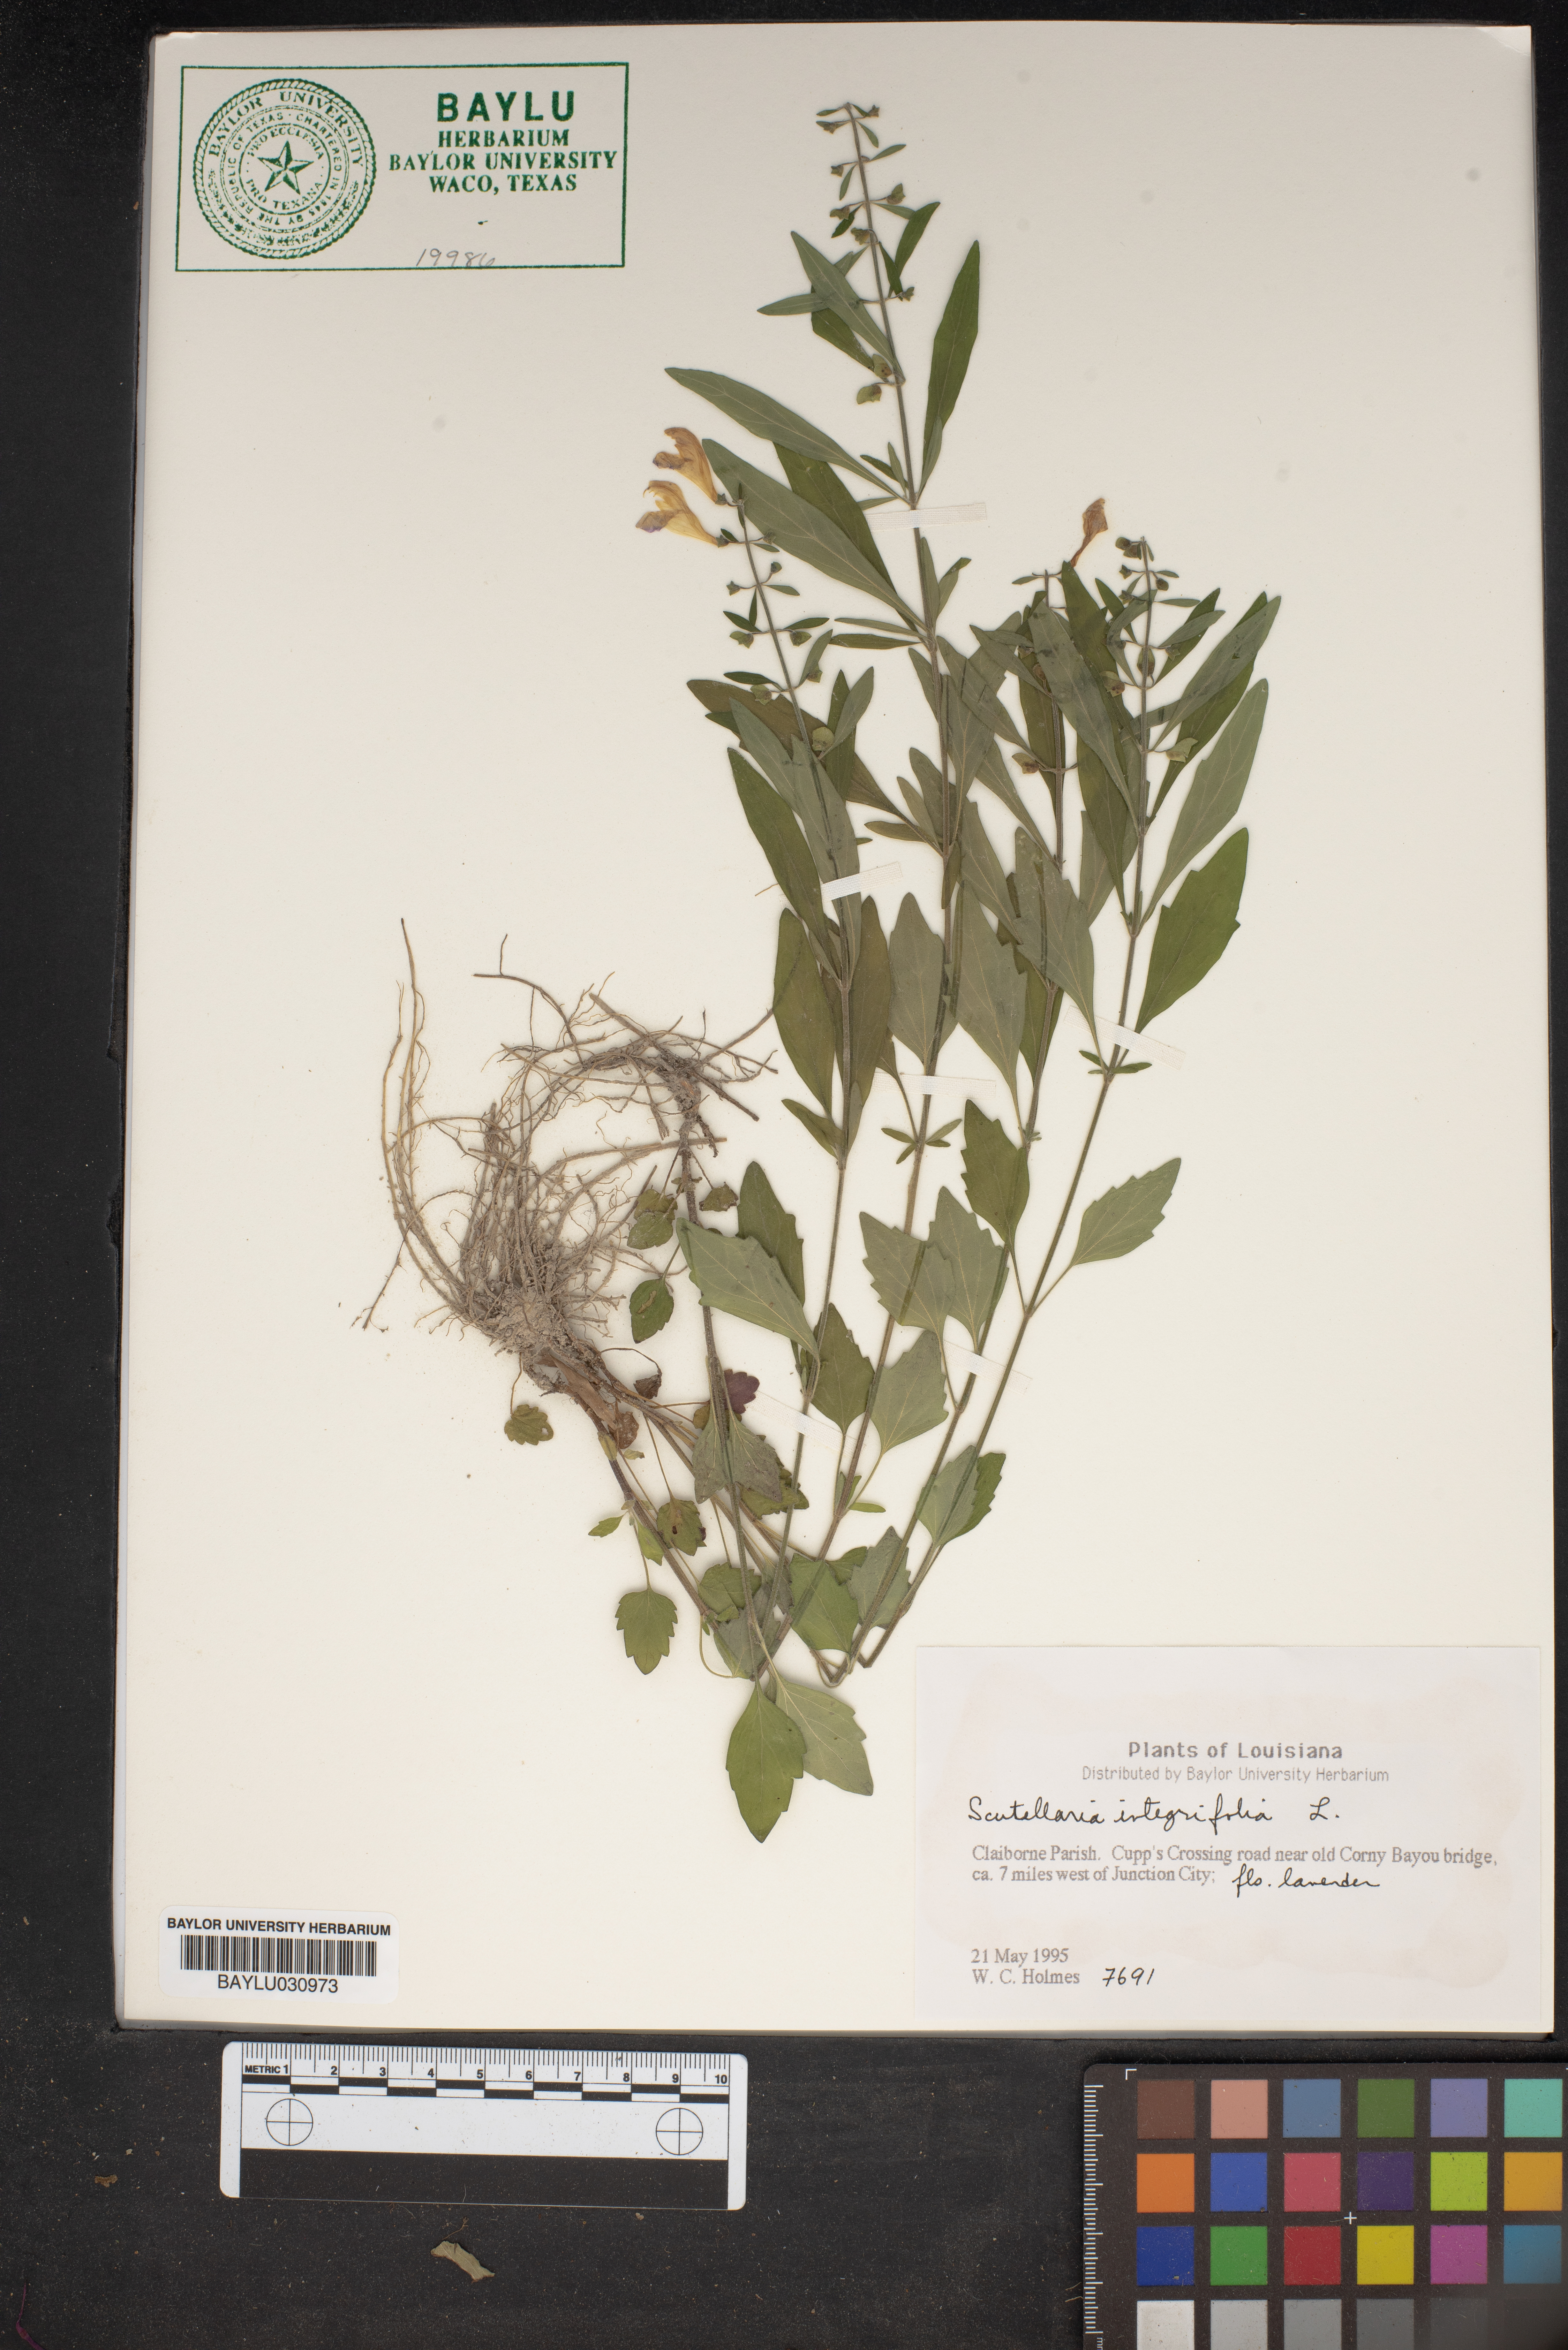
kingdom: Plantae
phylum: Tracheophyta
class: Magnoliopsida
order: Lamiales
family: Lamiaceae
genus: Scutellaria
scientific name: Scutellaria integrifolia
